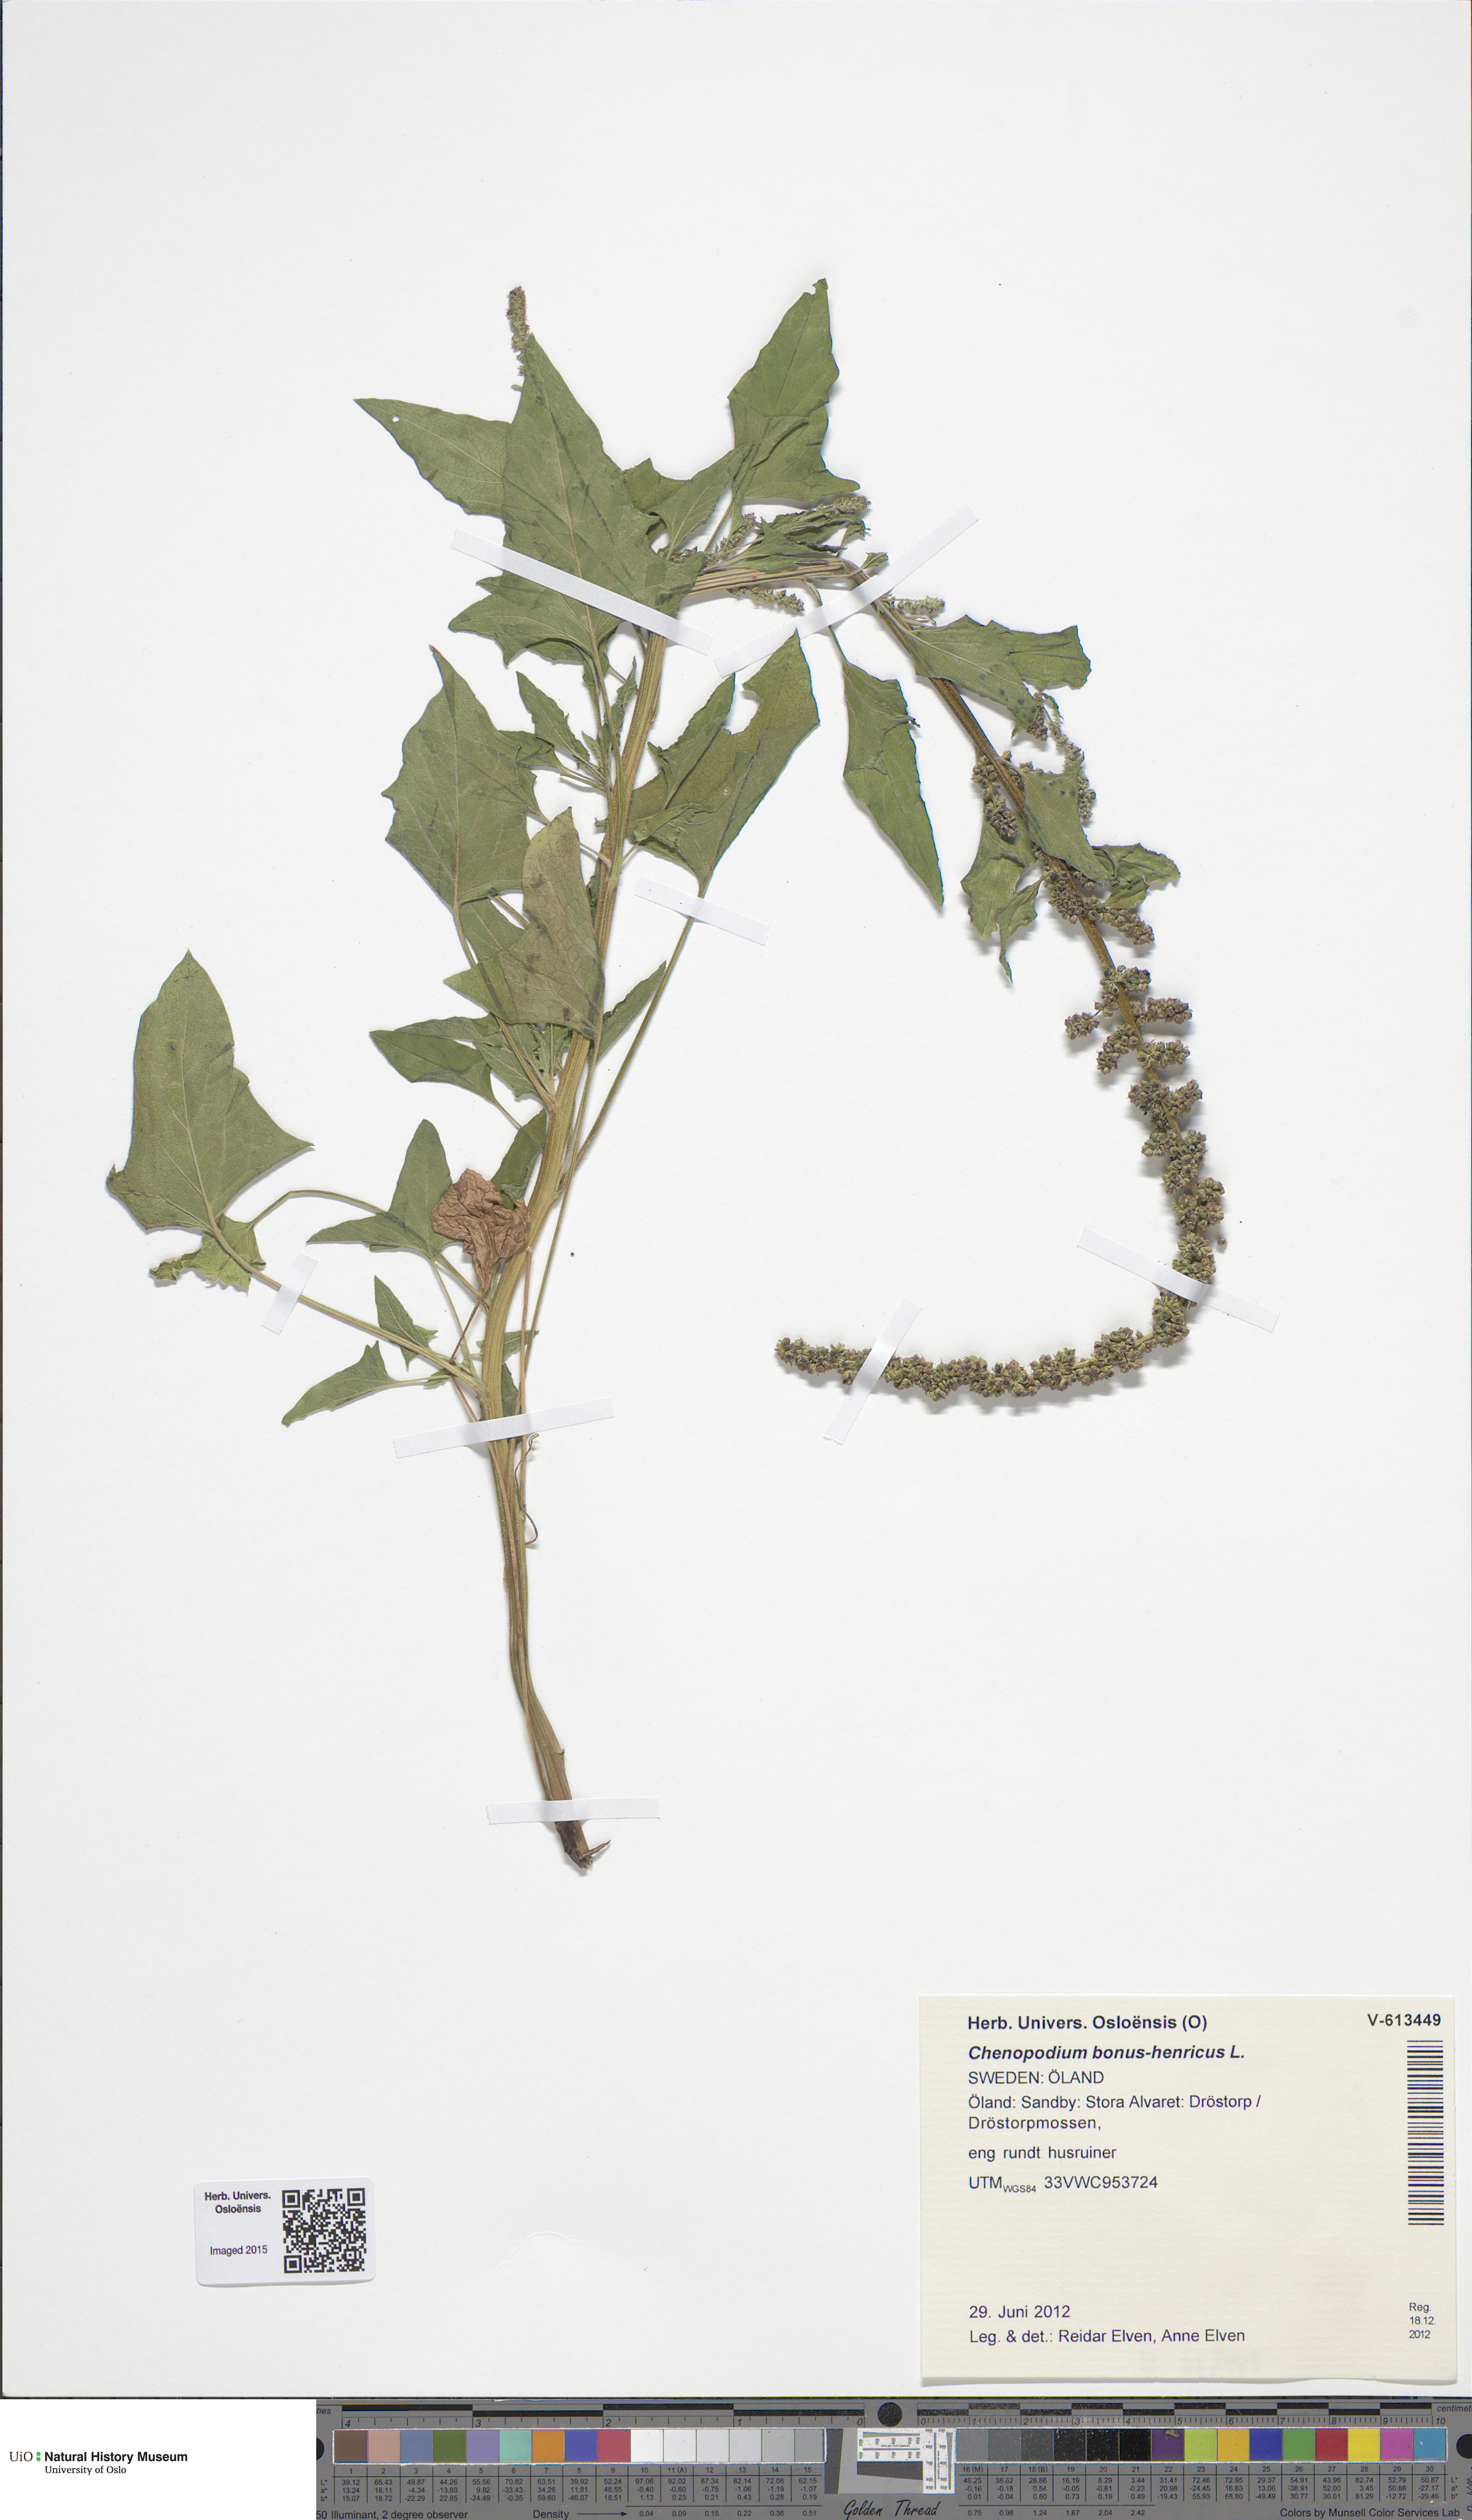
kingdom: Plantae
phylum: Tracheophyta
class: Magnoliopsida
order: Caryophyllales
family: Amaranthaceae
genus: Blitum
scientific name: Blitum bonus-henricus
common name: Good king henry
